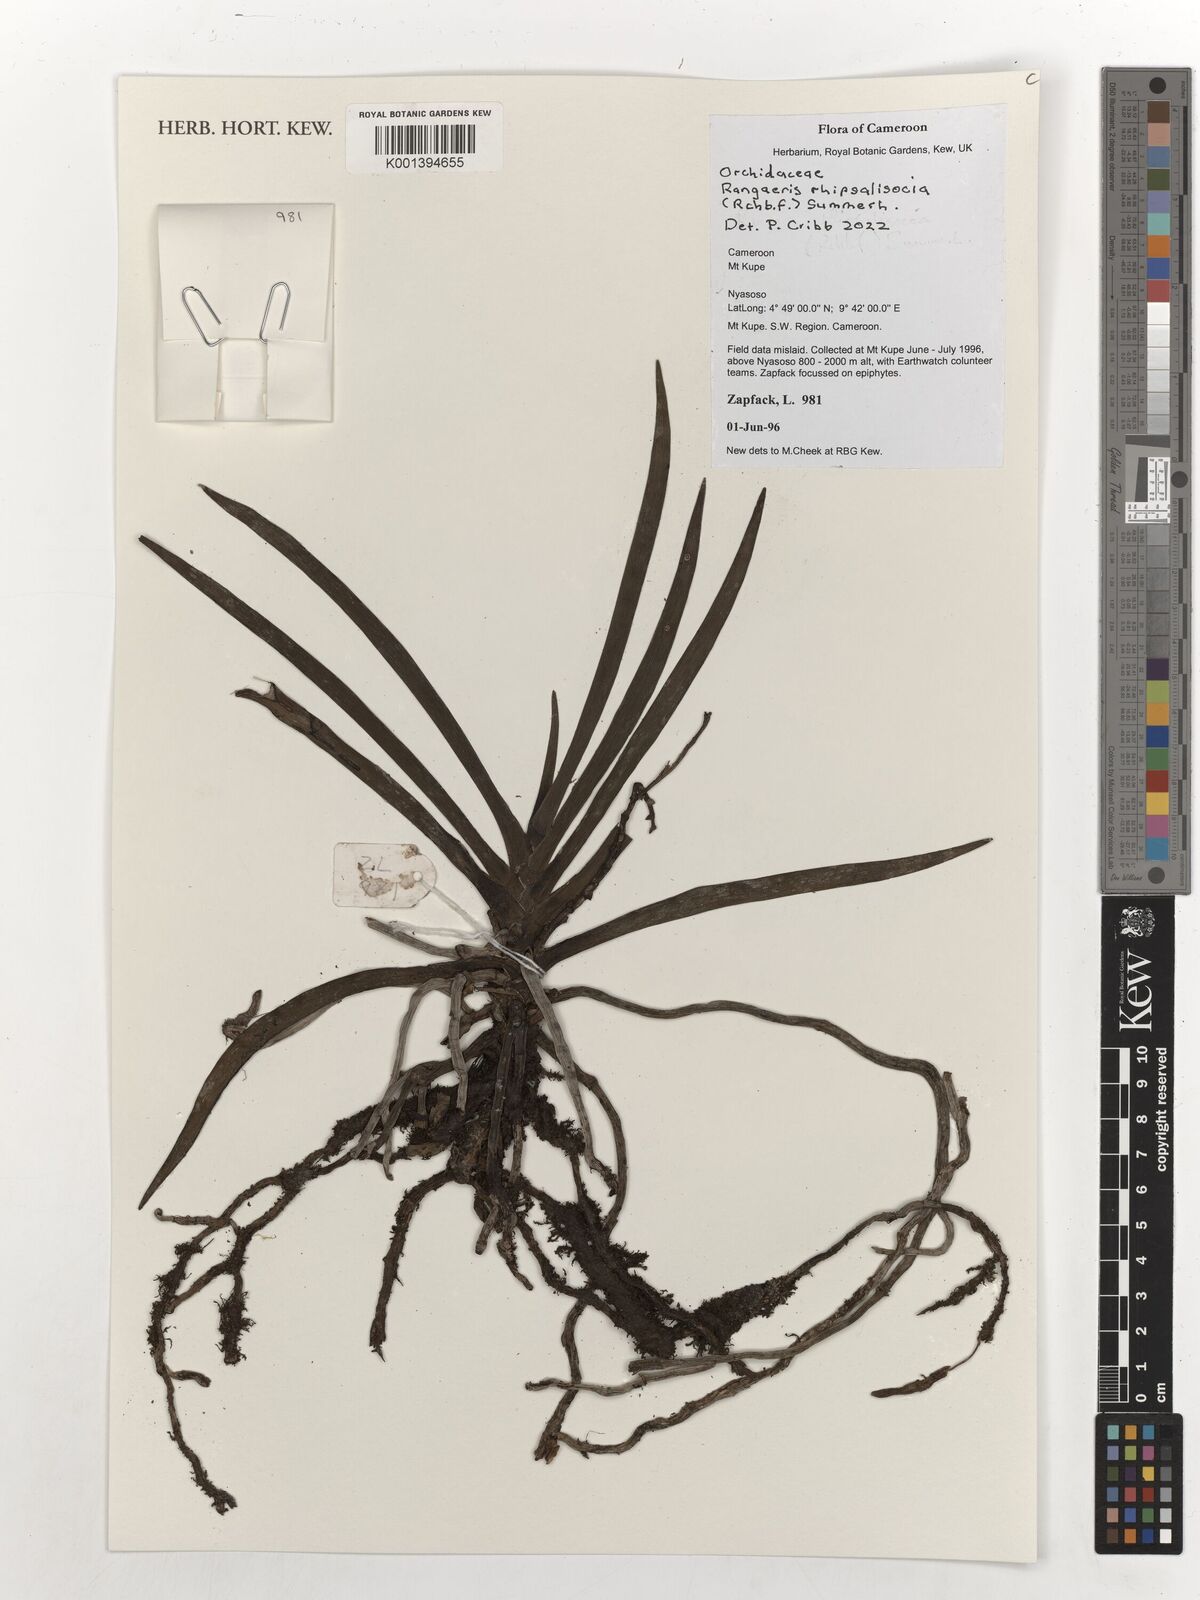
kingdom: Plantae
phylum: Tracheophyta
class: Liliopsida
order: Asparagales
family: Orchidaceae
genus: Podangis
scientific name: Podangis rhipsalisocia
